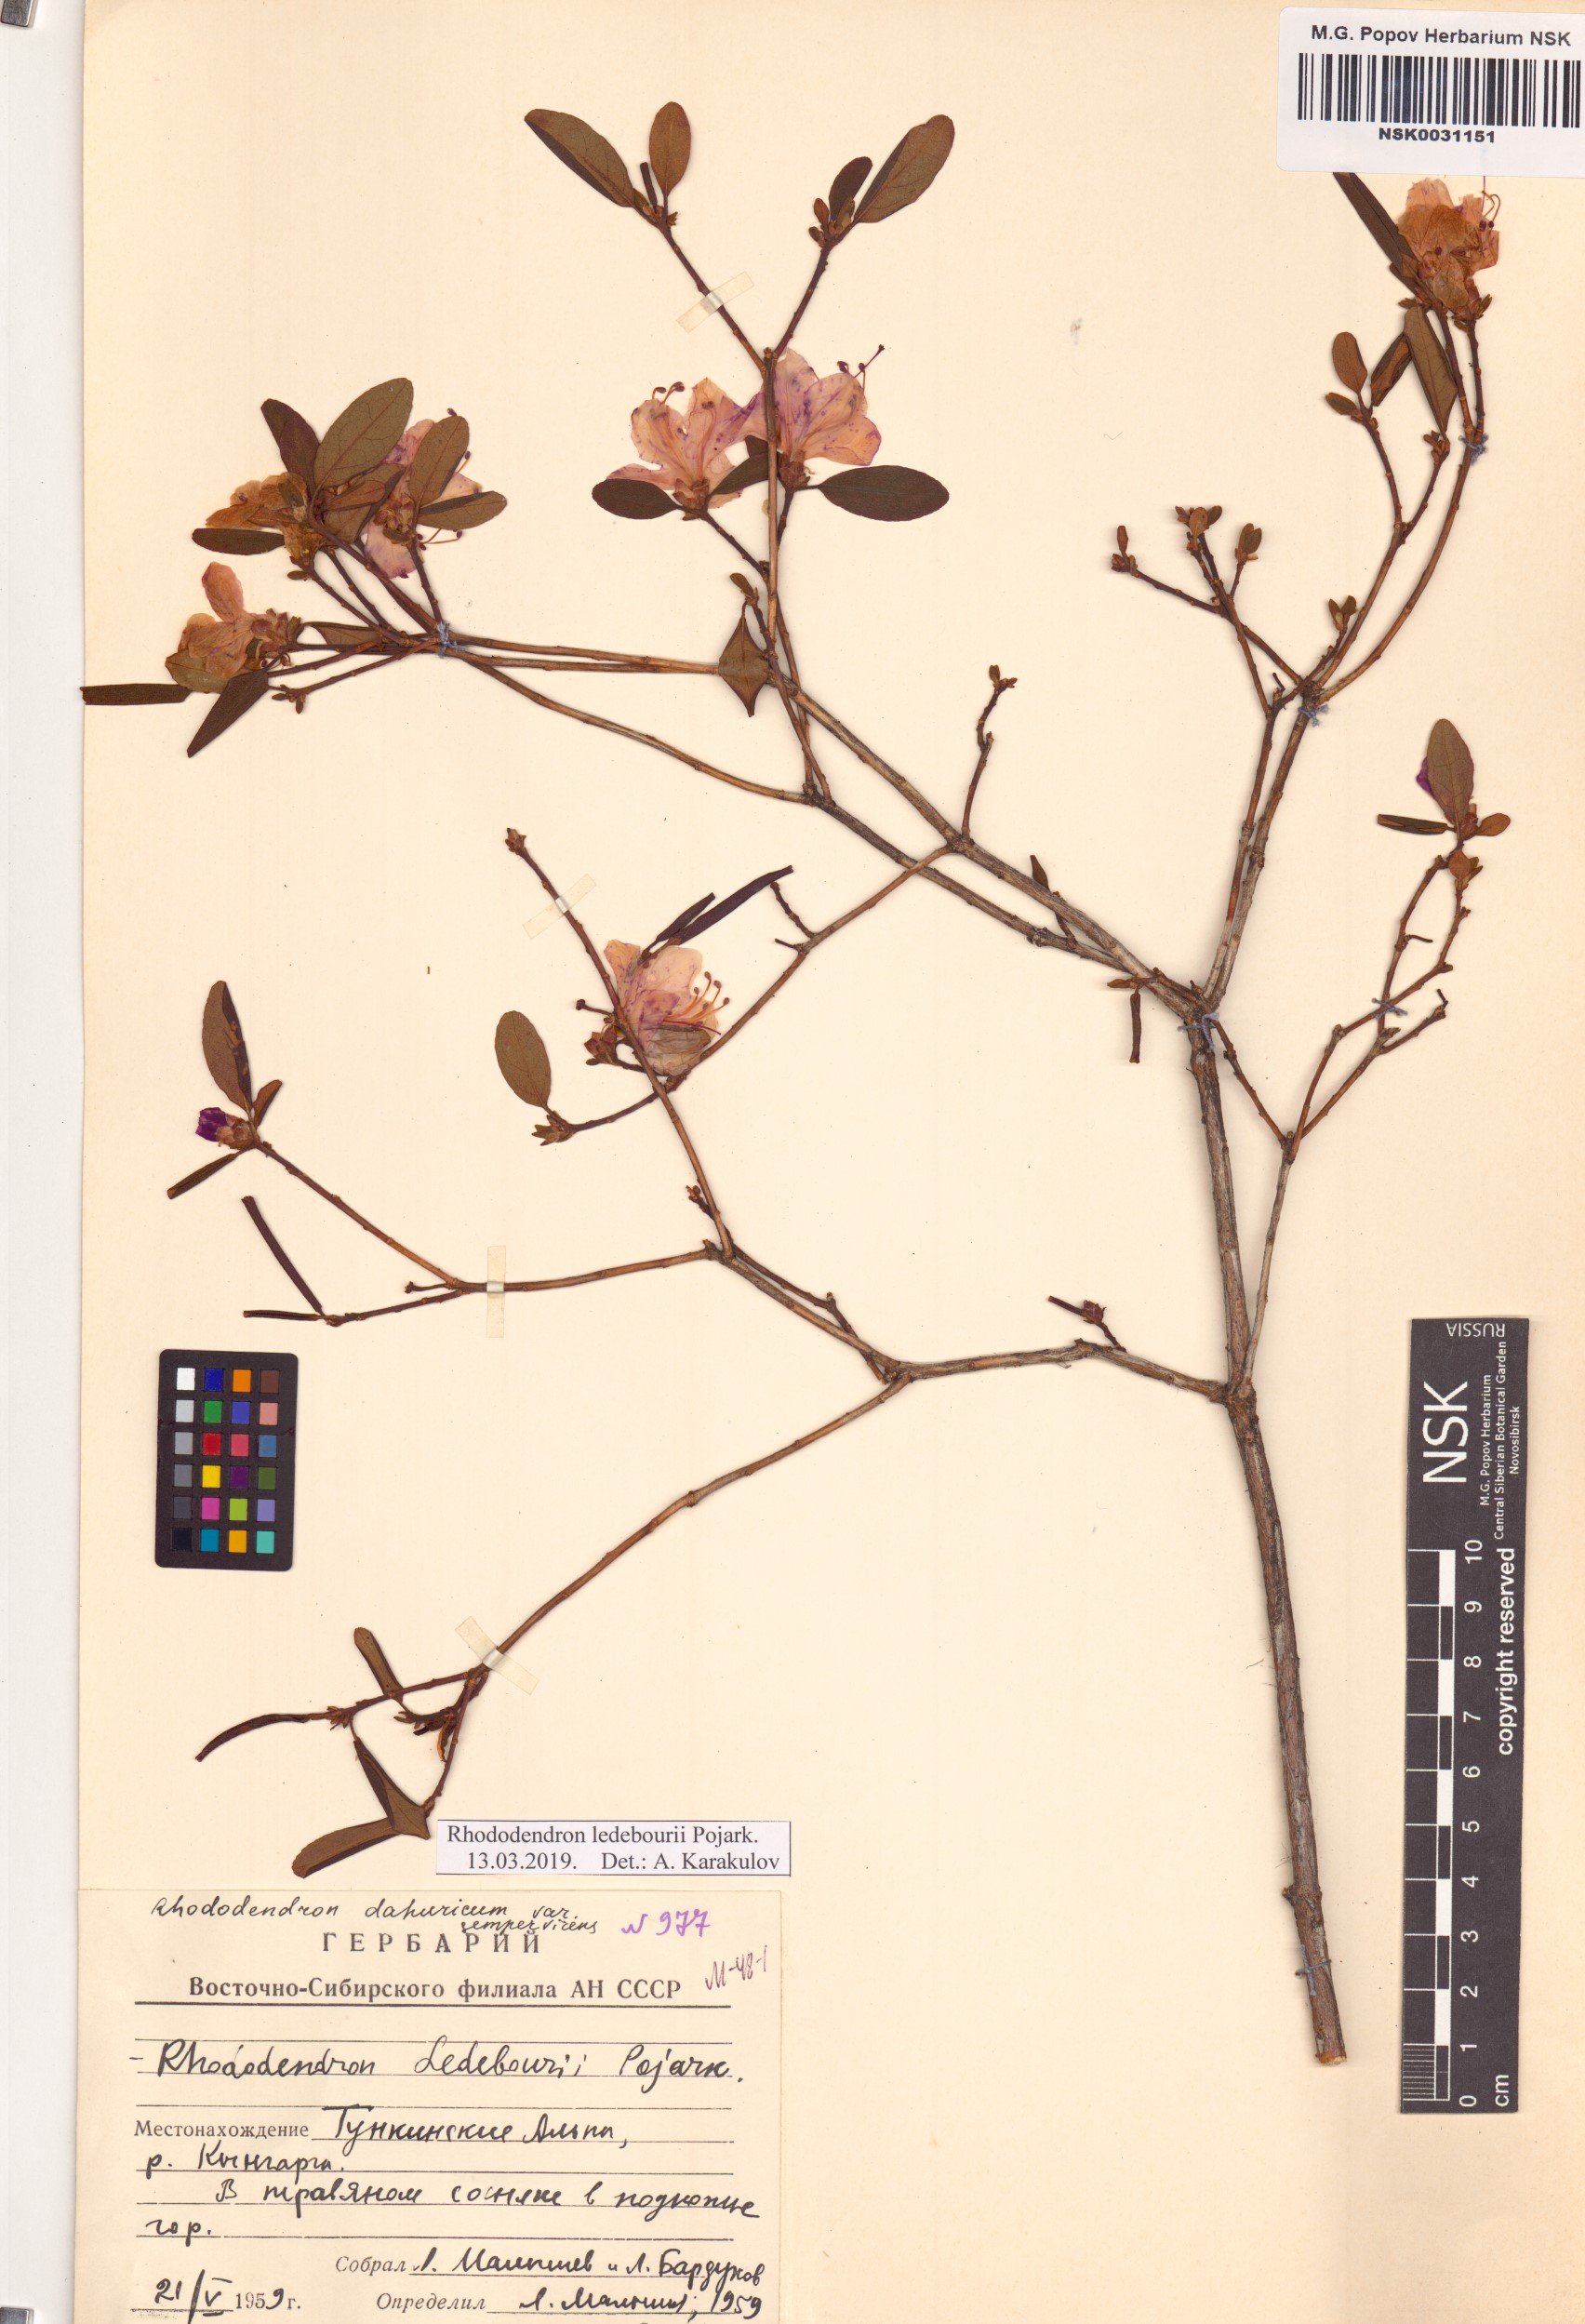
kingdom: Plantae
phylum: Tracheophyta
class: Magnoliopsida
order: Ericales
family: Ericaceae
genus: Rhododendron
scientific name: Rhododendron dauricum
